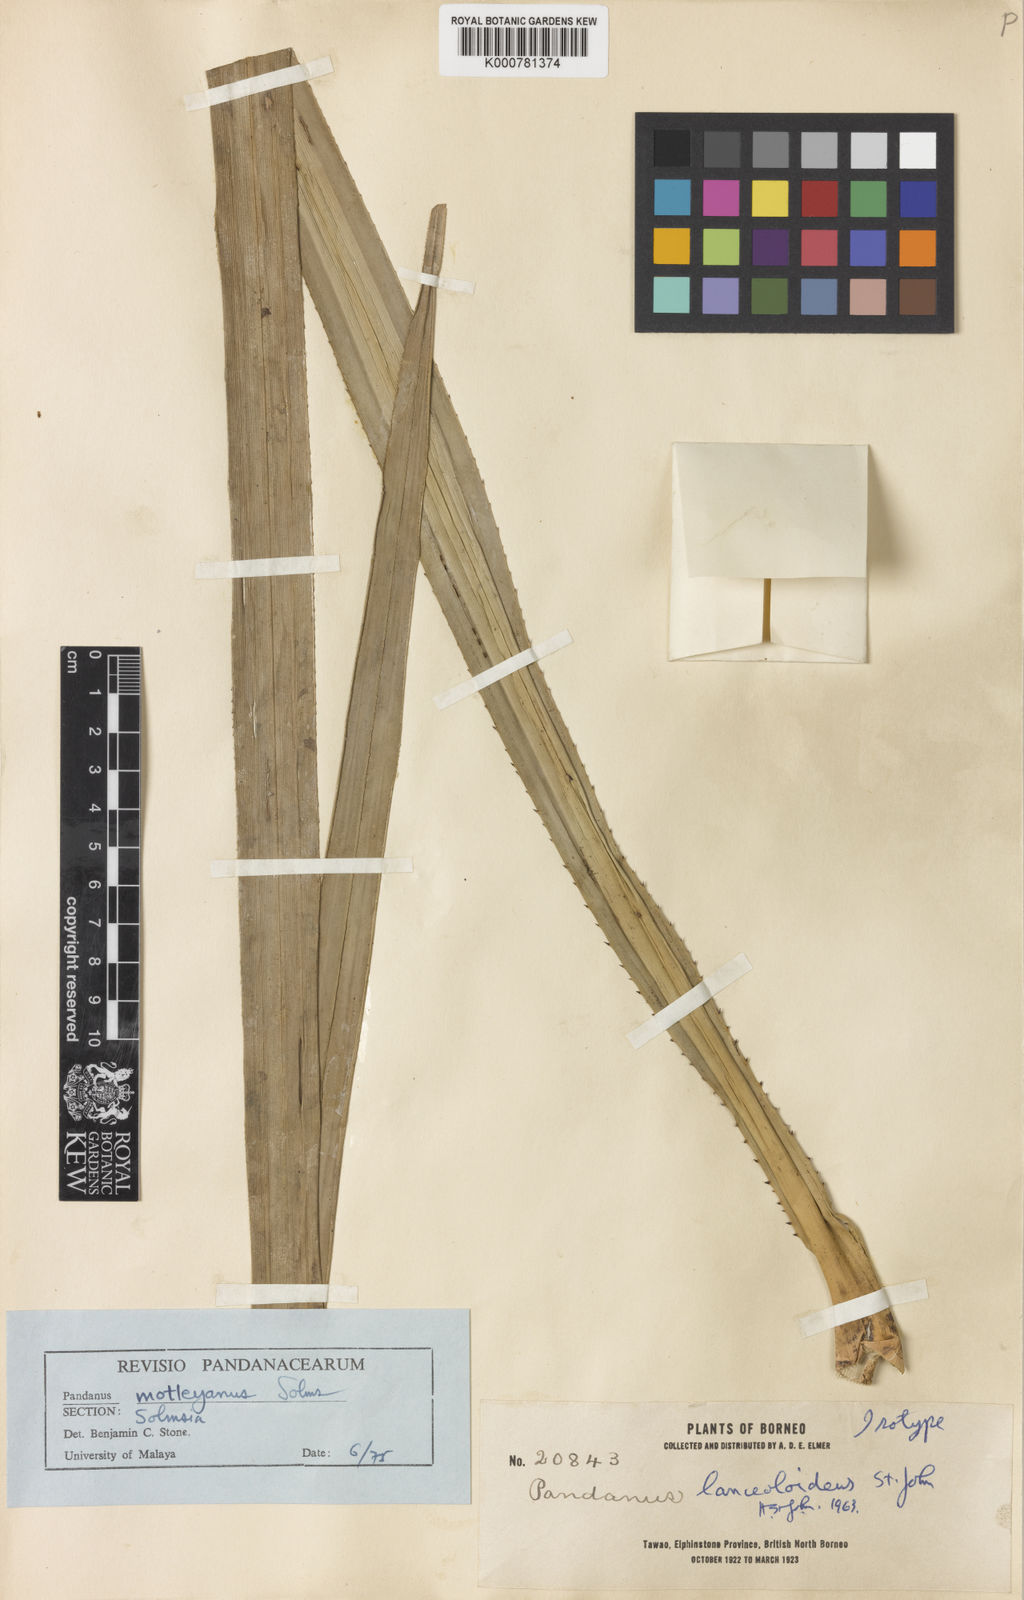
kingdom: Plantae
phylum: Tracheophyta
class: Liliopsida
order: Pandanales
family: Pandanaceae
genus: Pandanus
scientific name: Pandanus yvanii
